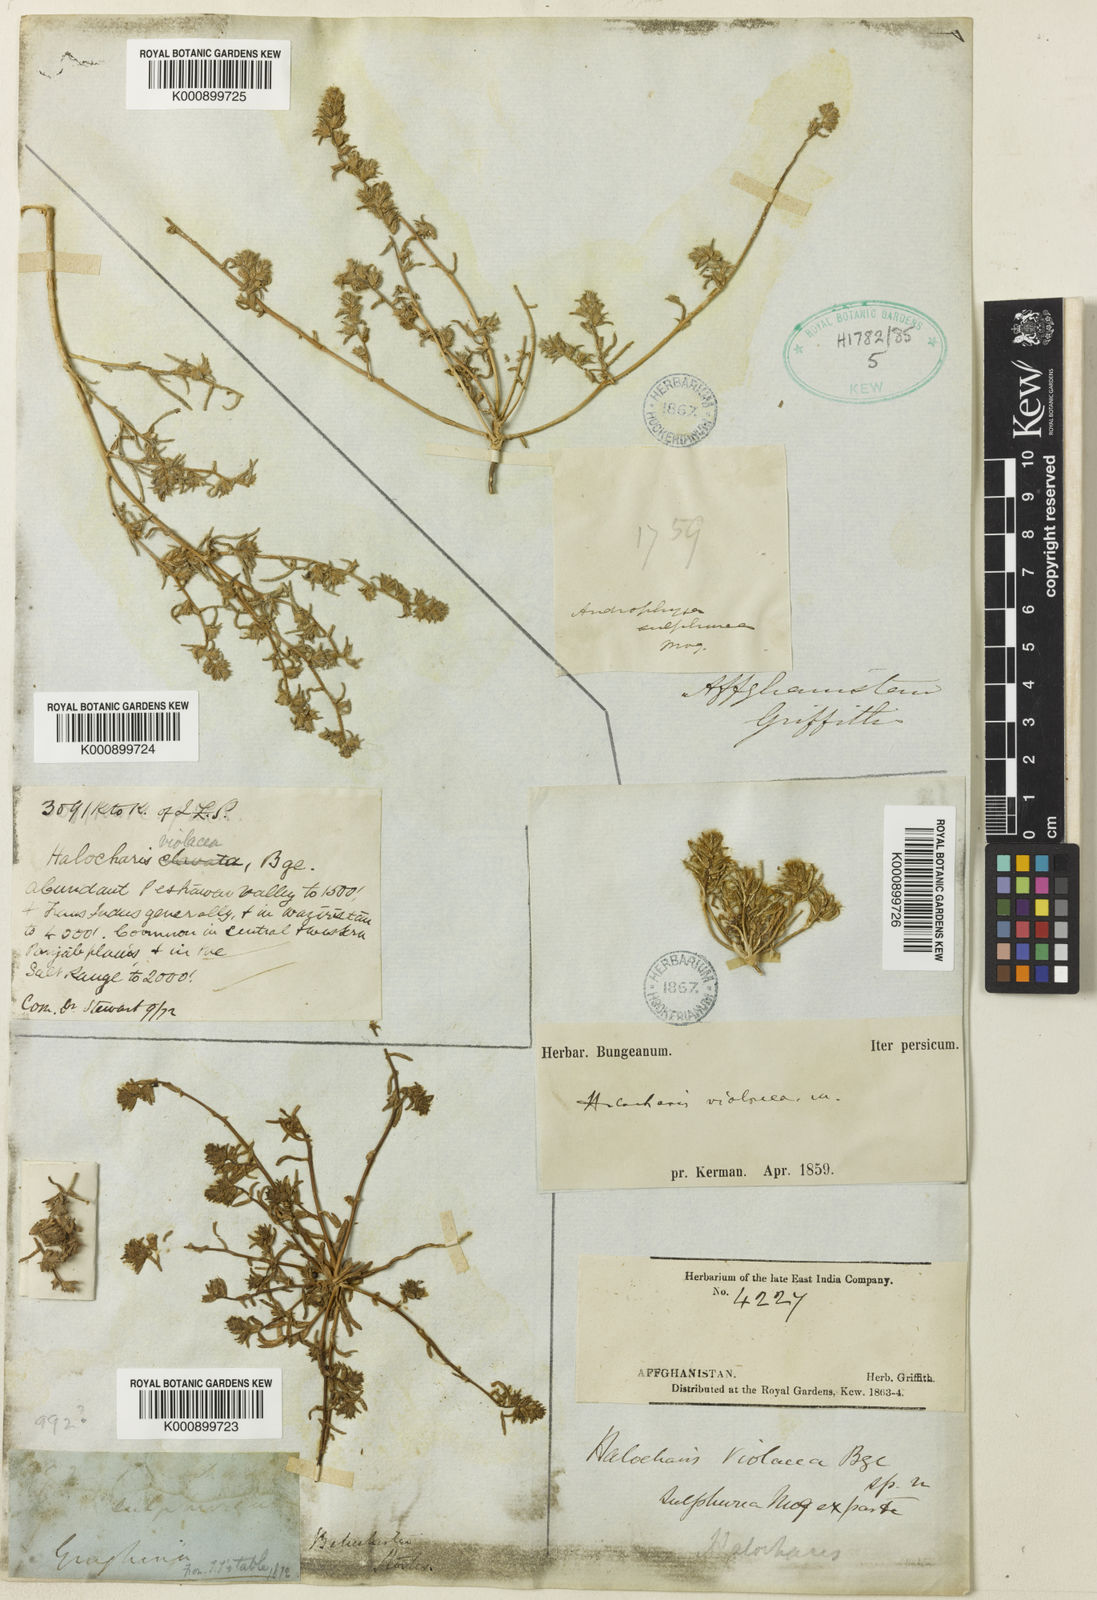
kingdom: Plantae
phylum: Tracheophyta
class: Magnoliopsida
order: Caryophyllales
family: Amaranthaceae
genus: Halocharis
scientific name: Halocharis violacea
